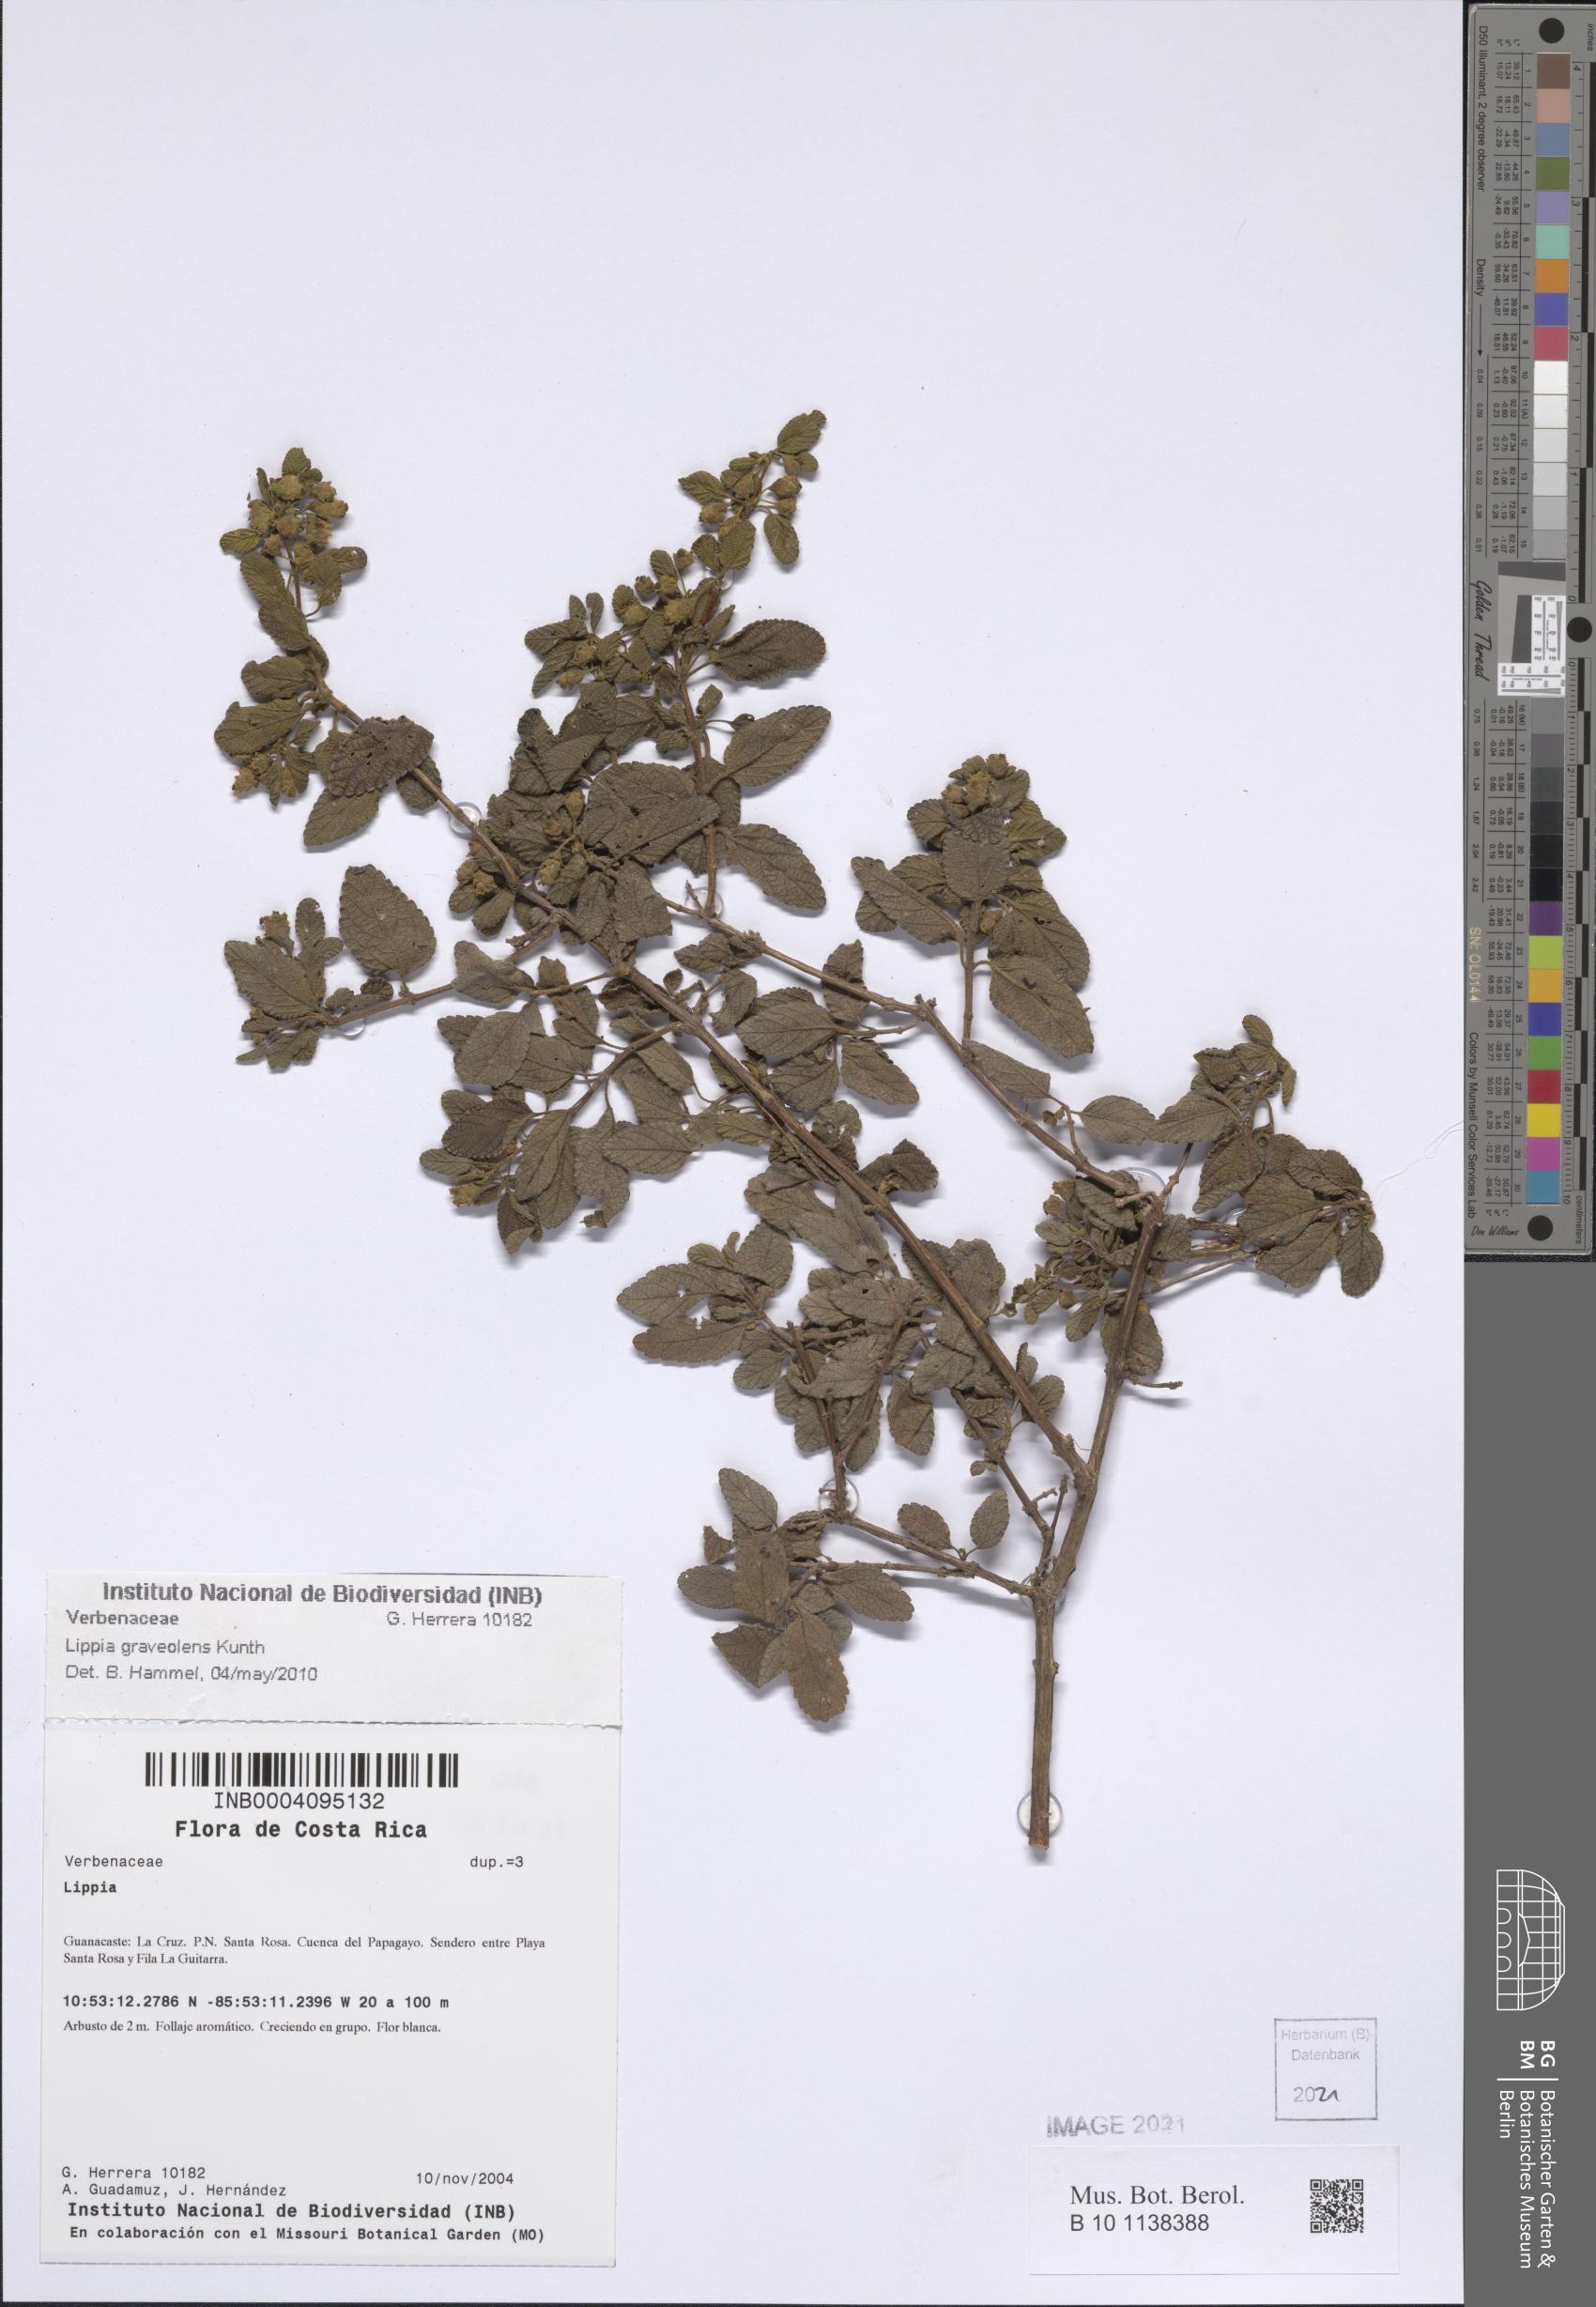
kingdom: Plantae
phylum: Tracheophyta
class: Magnoliopsida
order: Lamiales
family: Verbenaceae
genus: Lippia
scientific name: Lippia origanoides
